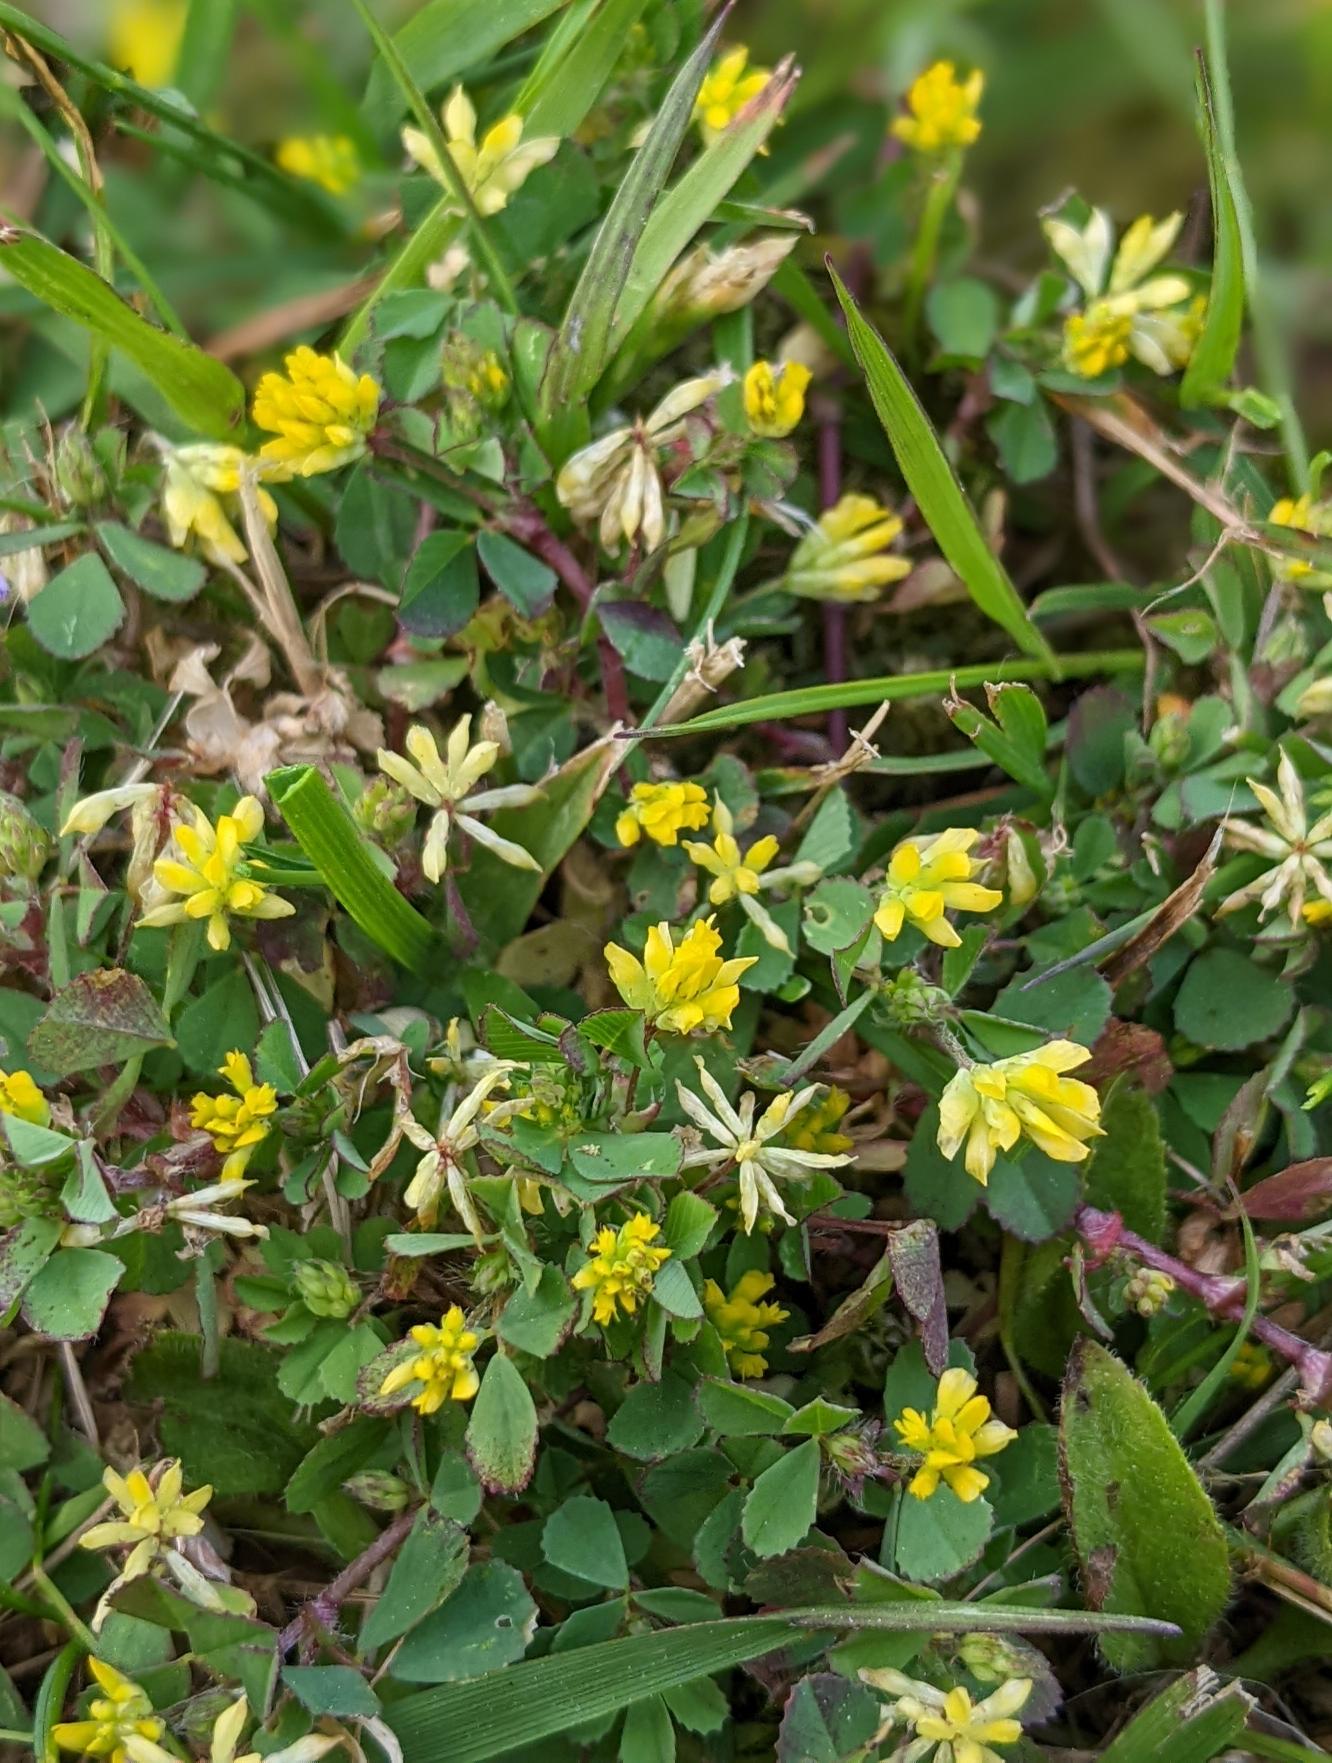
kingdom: Plantae
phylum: Tracheophyta
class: Magnoliopsida
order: Fabales
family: Fabaceae
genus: Trifolium
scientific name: Trifolium dubium
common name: Fin kløver
